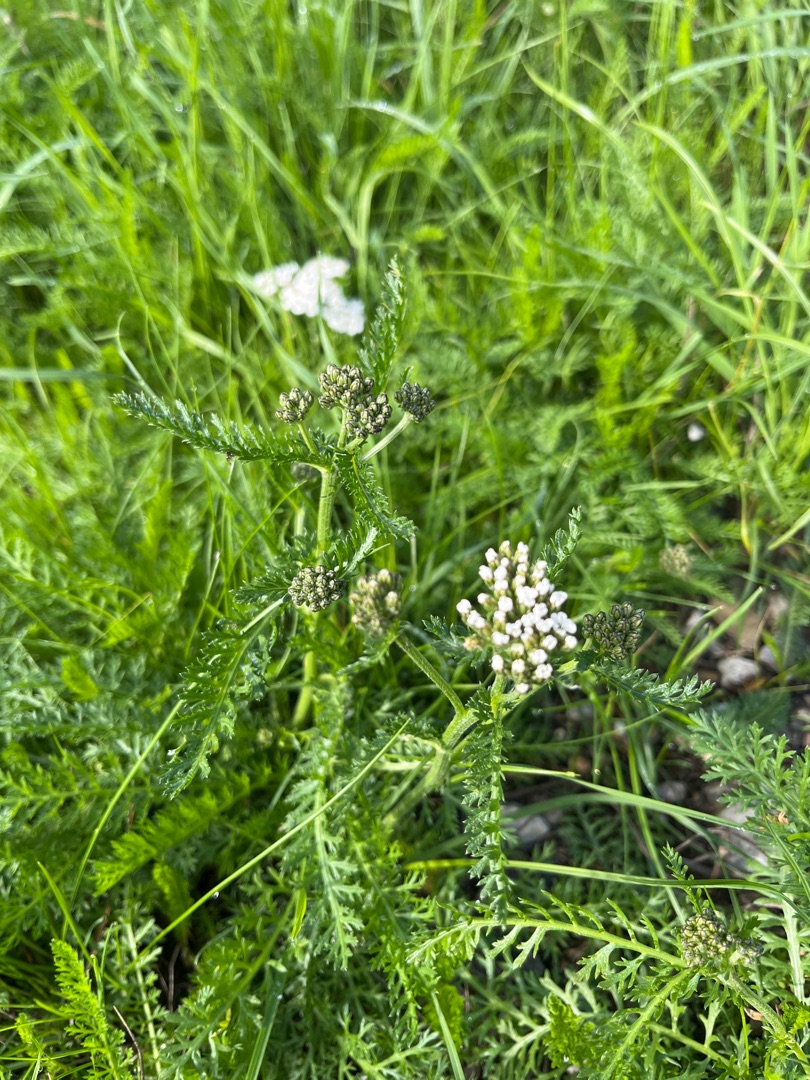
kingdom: Plantae
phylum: Tracheophyta
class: Magnoliopsida
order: Asterales
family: Asteraceae
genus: Achillea
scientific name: Achillea millefolium
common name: Almindelig røllike
